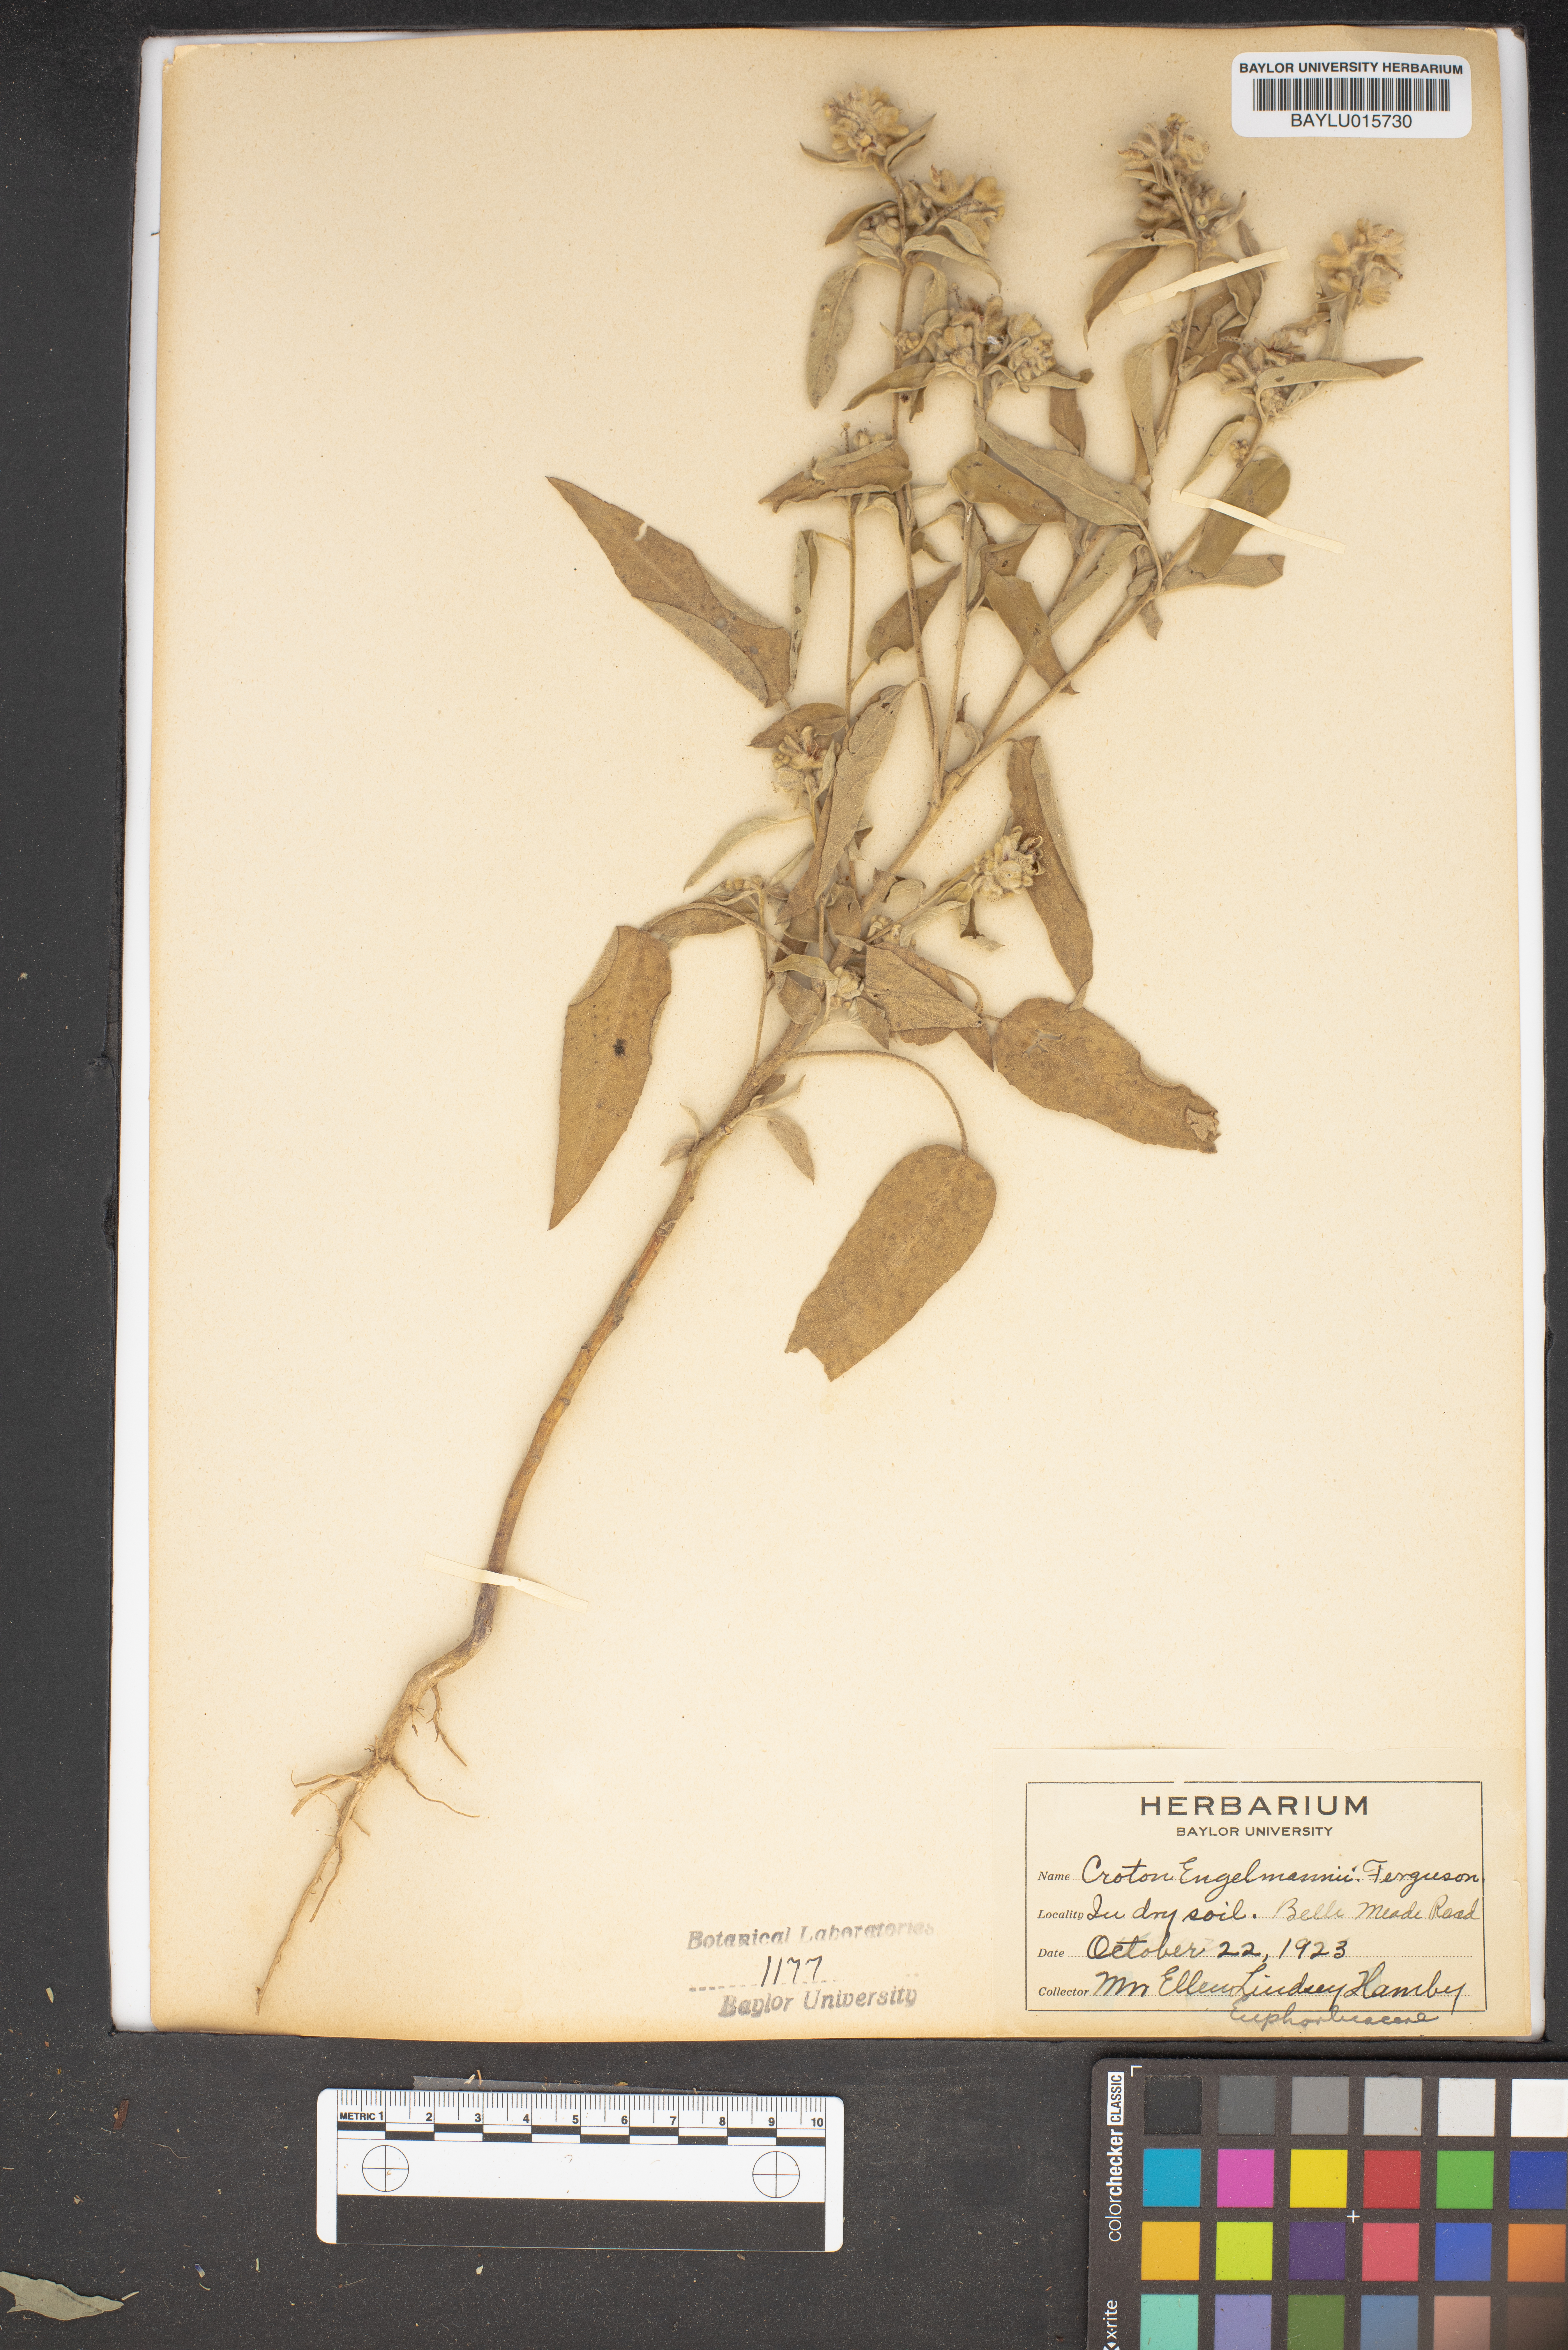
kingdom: Plantae
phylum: Tracheophyta
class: Magnoliopsida
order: Malpighiales
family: Euphorbiaceae
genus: Croton
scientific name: Croton lindheimeri
